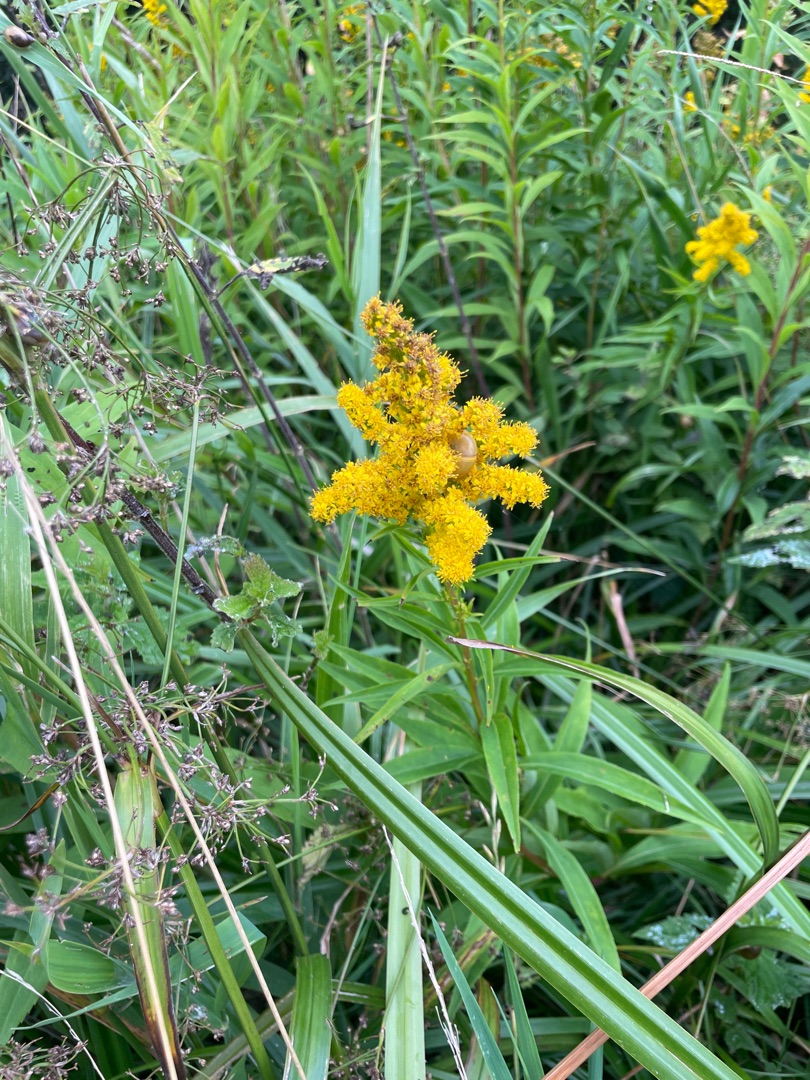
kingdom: Plantae
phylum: Tracheophyta
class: Magnoliopsida
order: Asterales
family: Asteraceae
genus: Solidago
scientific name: Solidago gigantea
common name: Sildig gyldenris
